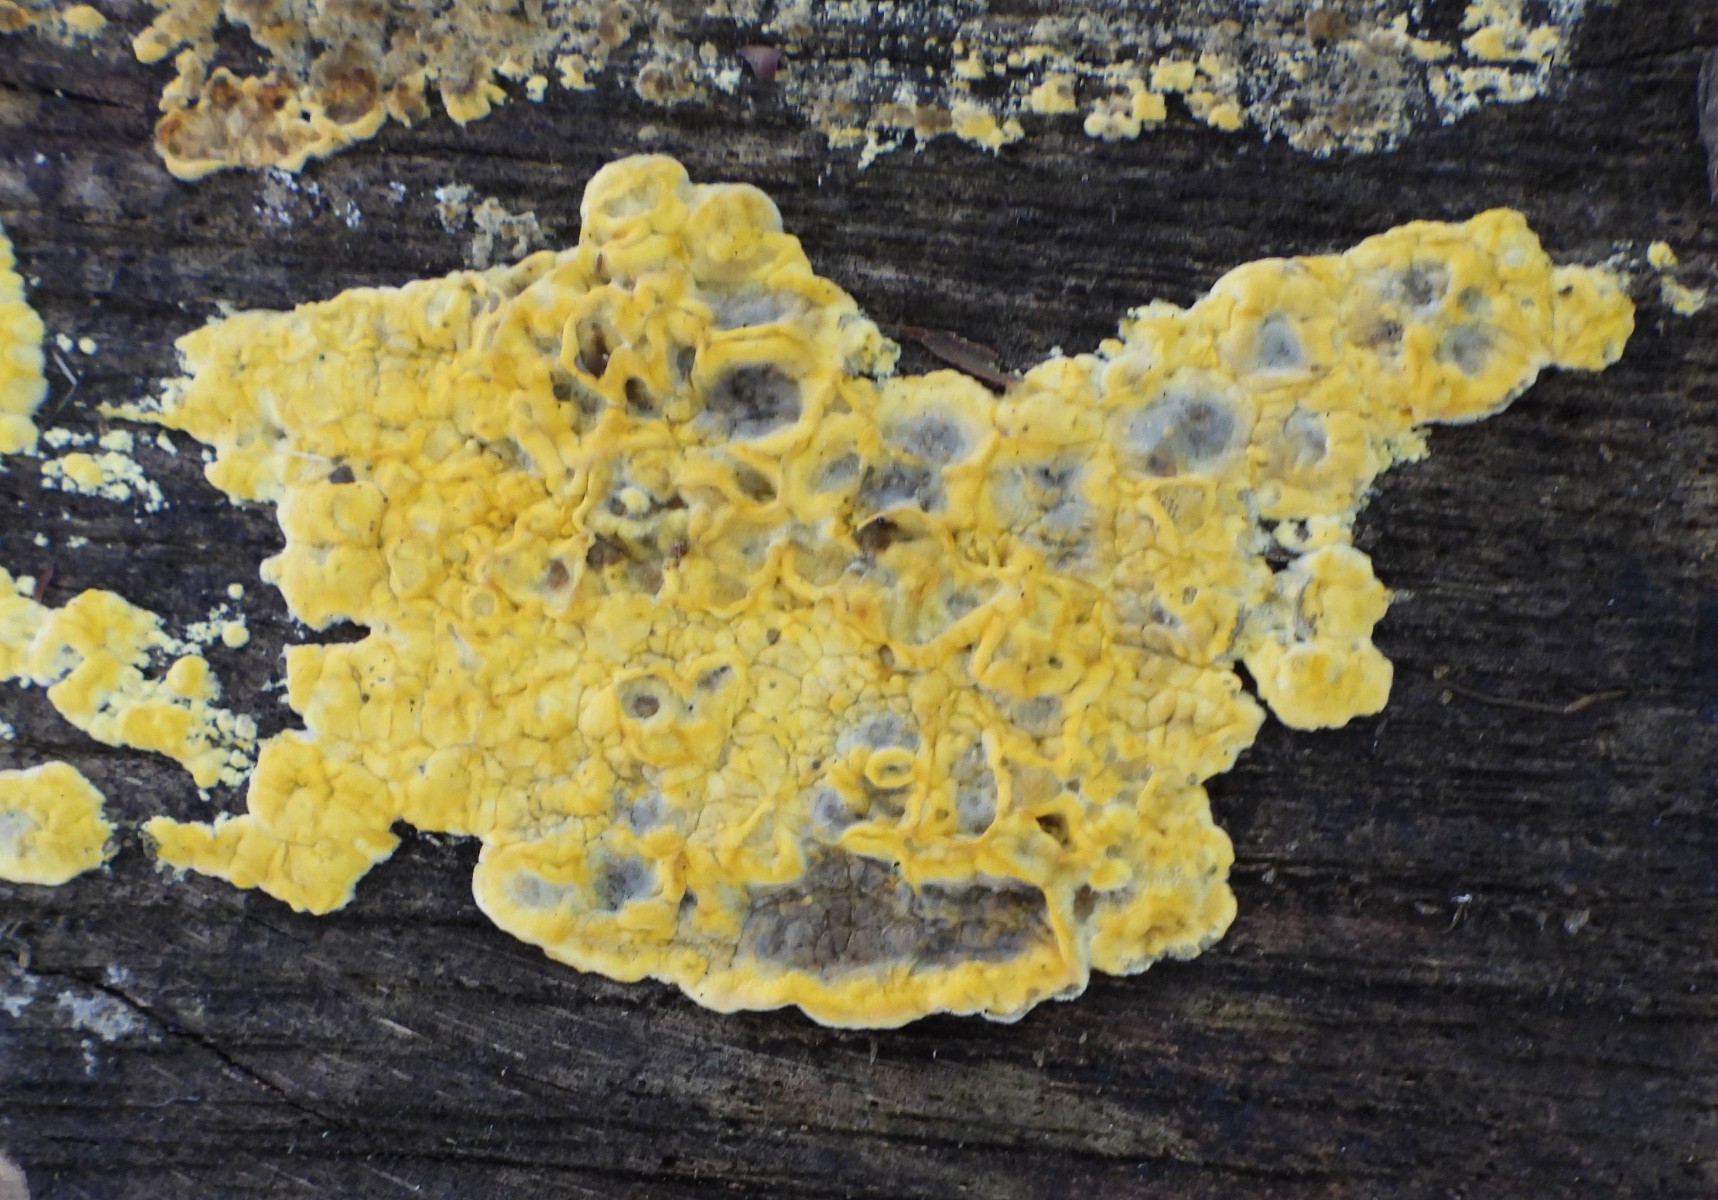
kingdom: Protozoa
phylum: Mycetozoa
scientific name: Mycetozoa
